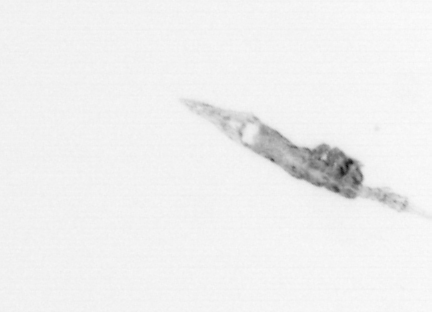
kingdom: Chromista
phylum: Ochrophyta
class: Bacillariophyceae
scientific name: Bacillariophyceae
